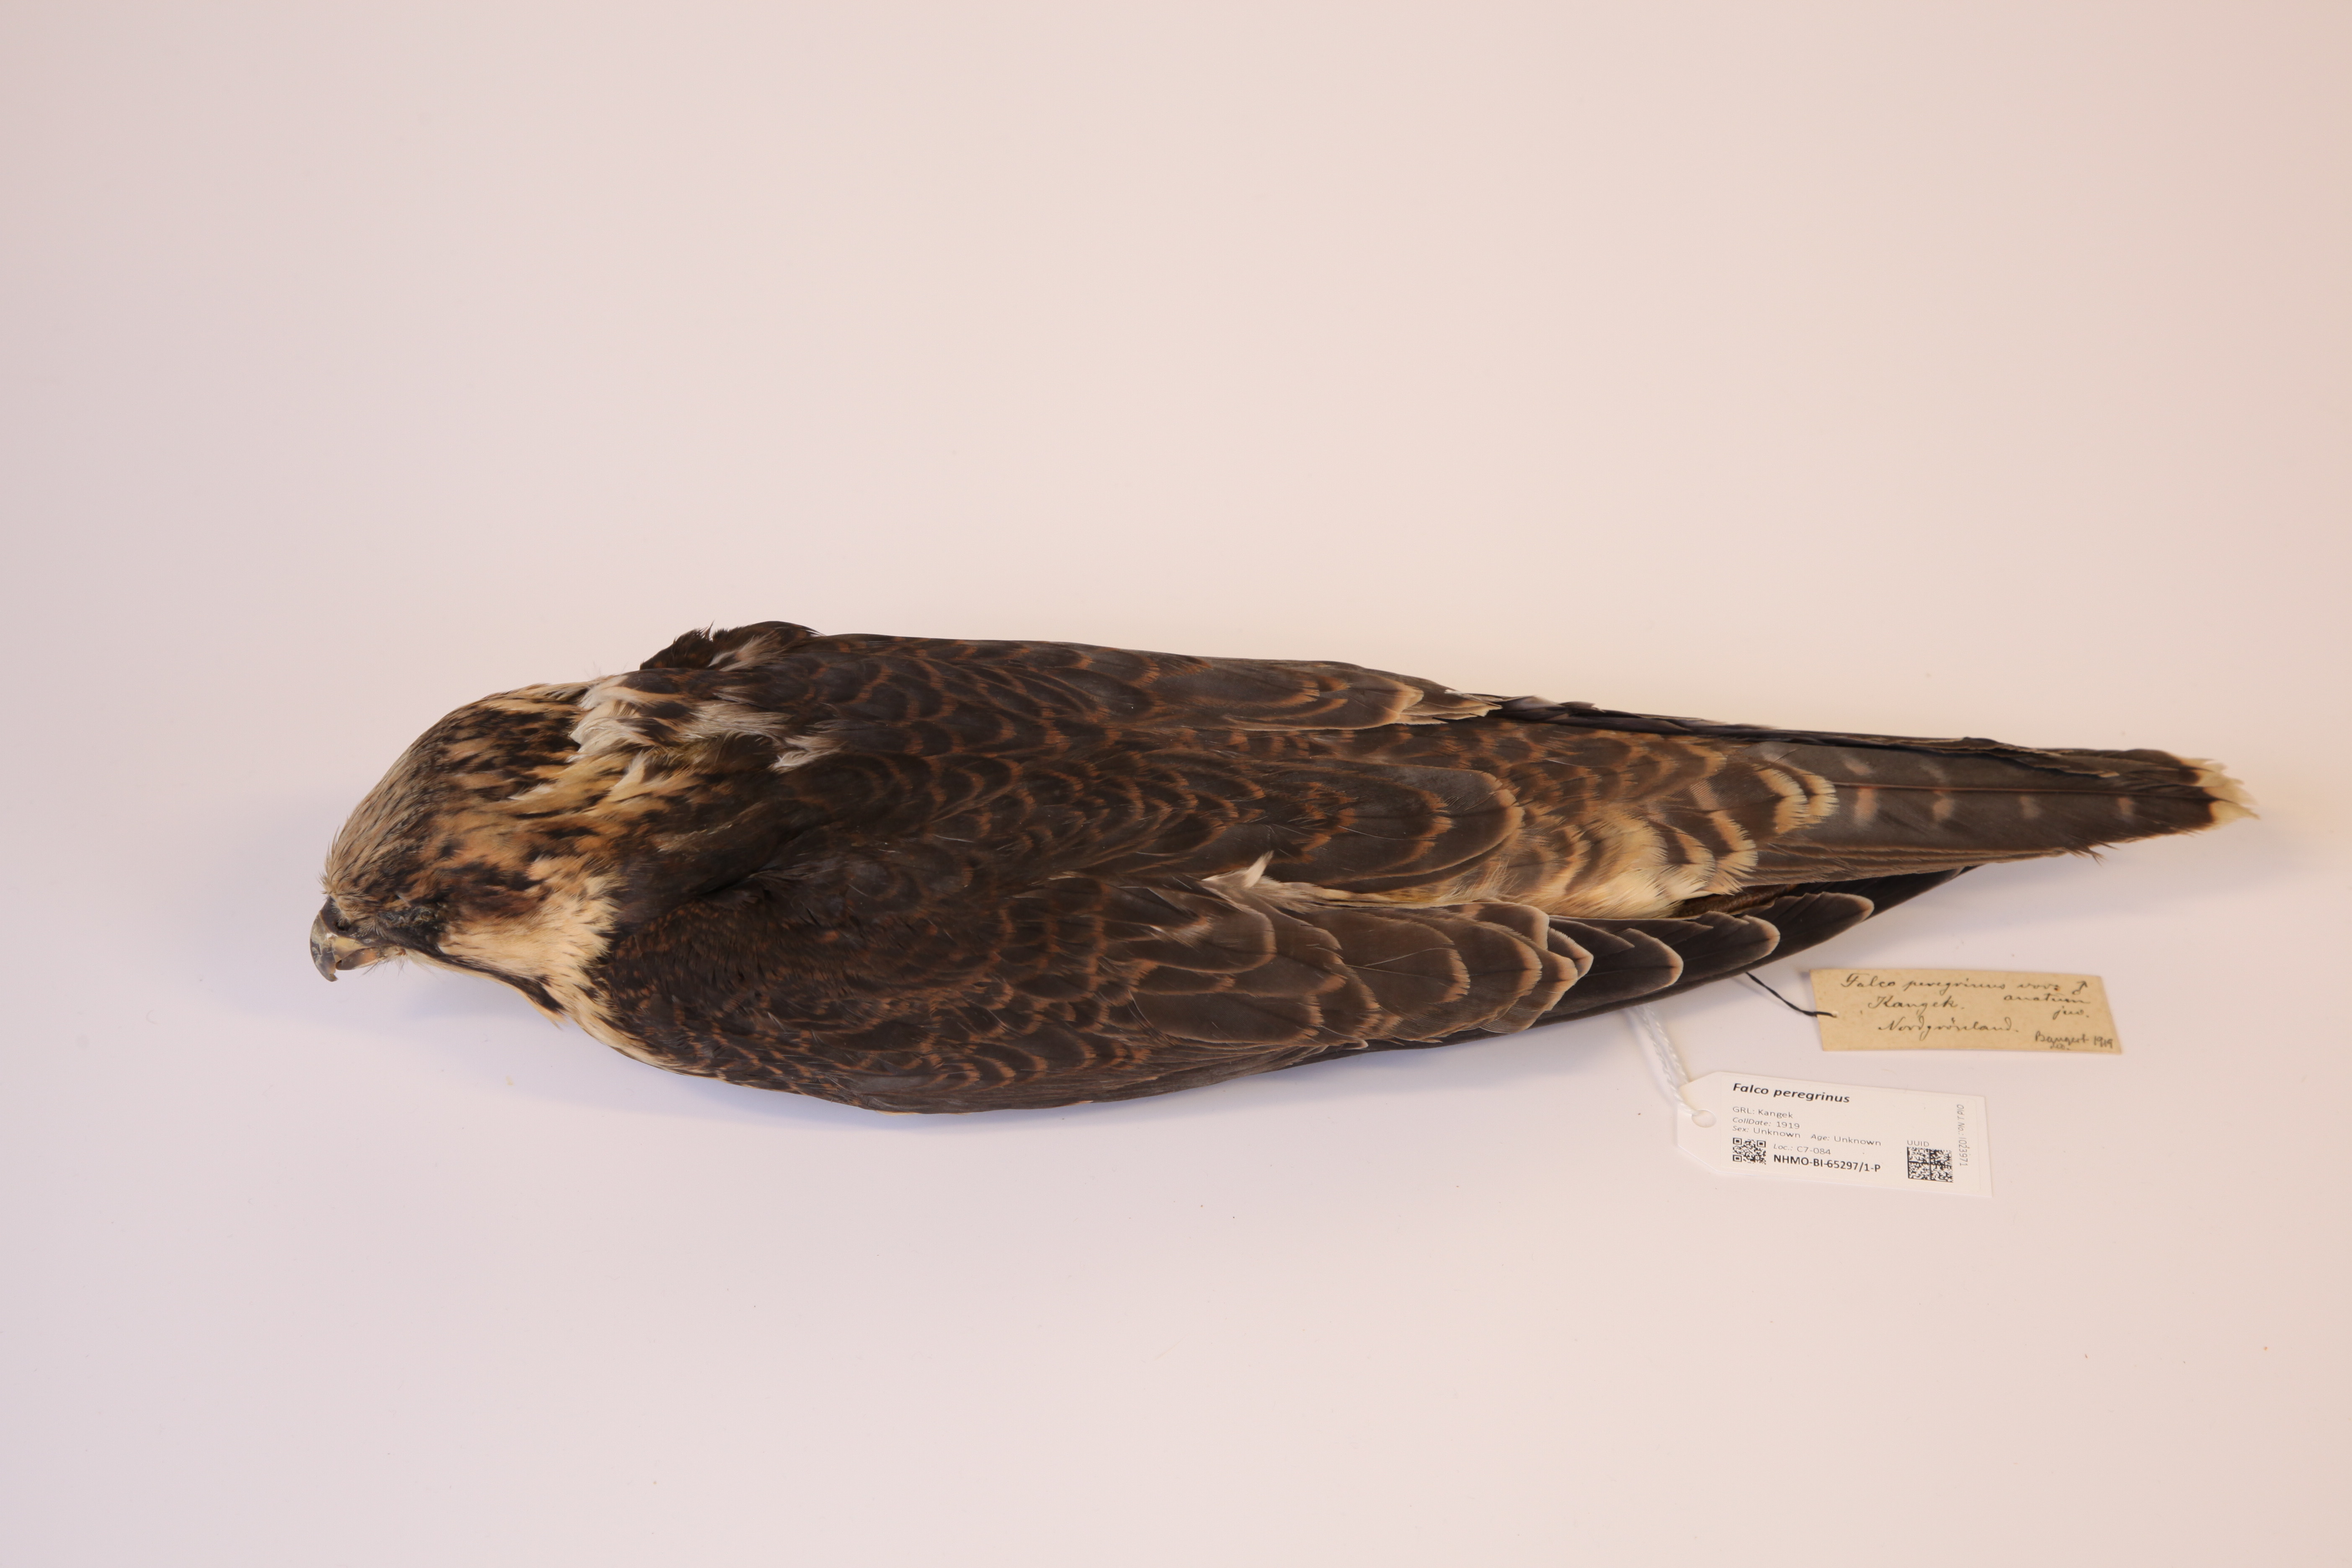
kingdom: Animalia
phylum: Chordata
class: Aves
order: Falconiformes
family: Falconidae
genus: Falco
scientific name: Falco peregrinus
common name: Peregrine falcon
